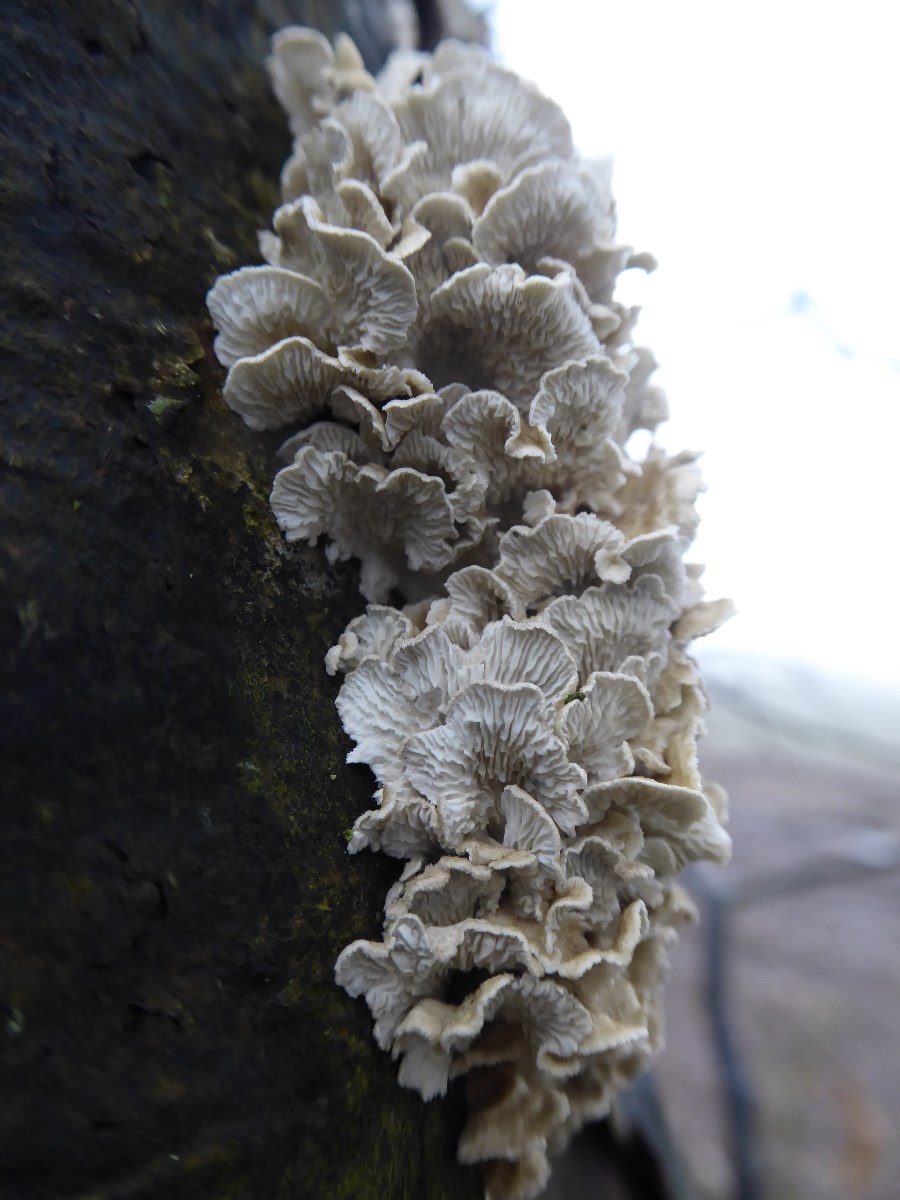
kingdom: Fungi
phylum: Basidiomycota
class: Agaricomycetes
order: Amylocorticiales
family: Amylocorticiaceae
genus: Plicaturopsis
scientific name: Plicaturopsis crispa
